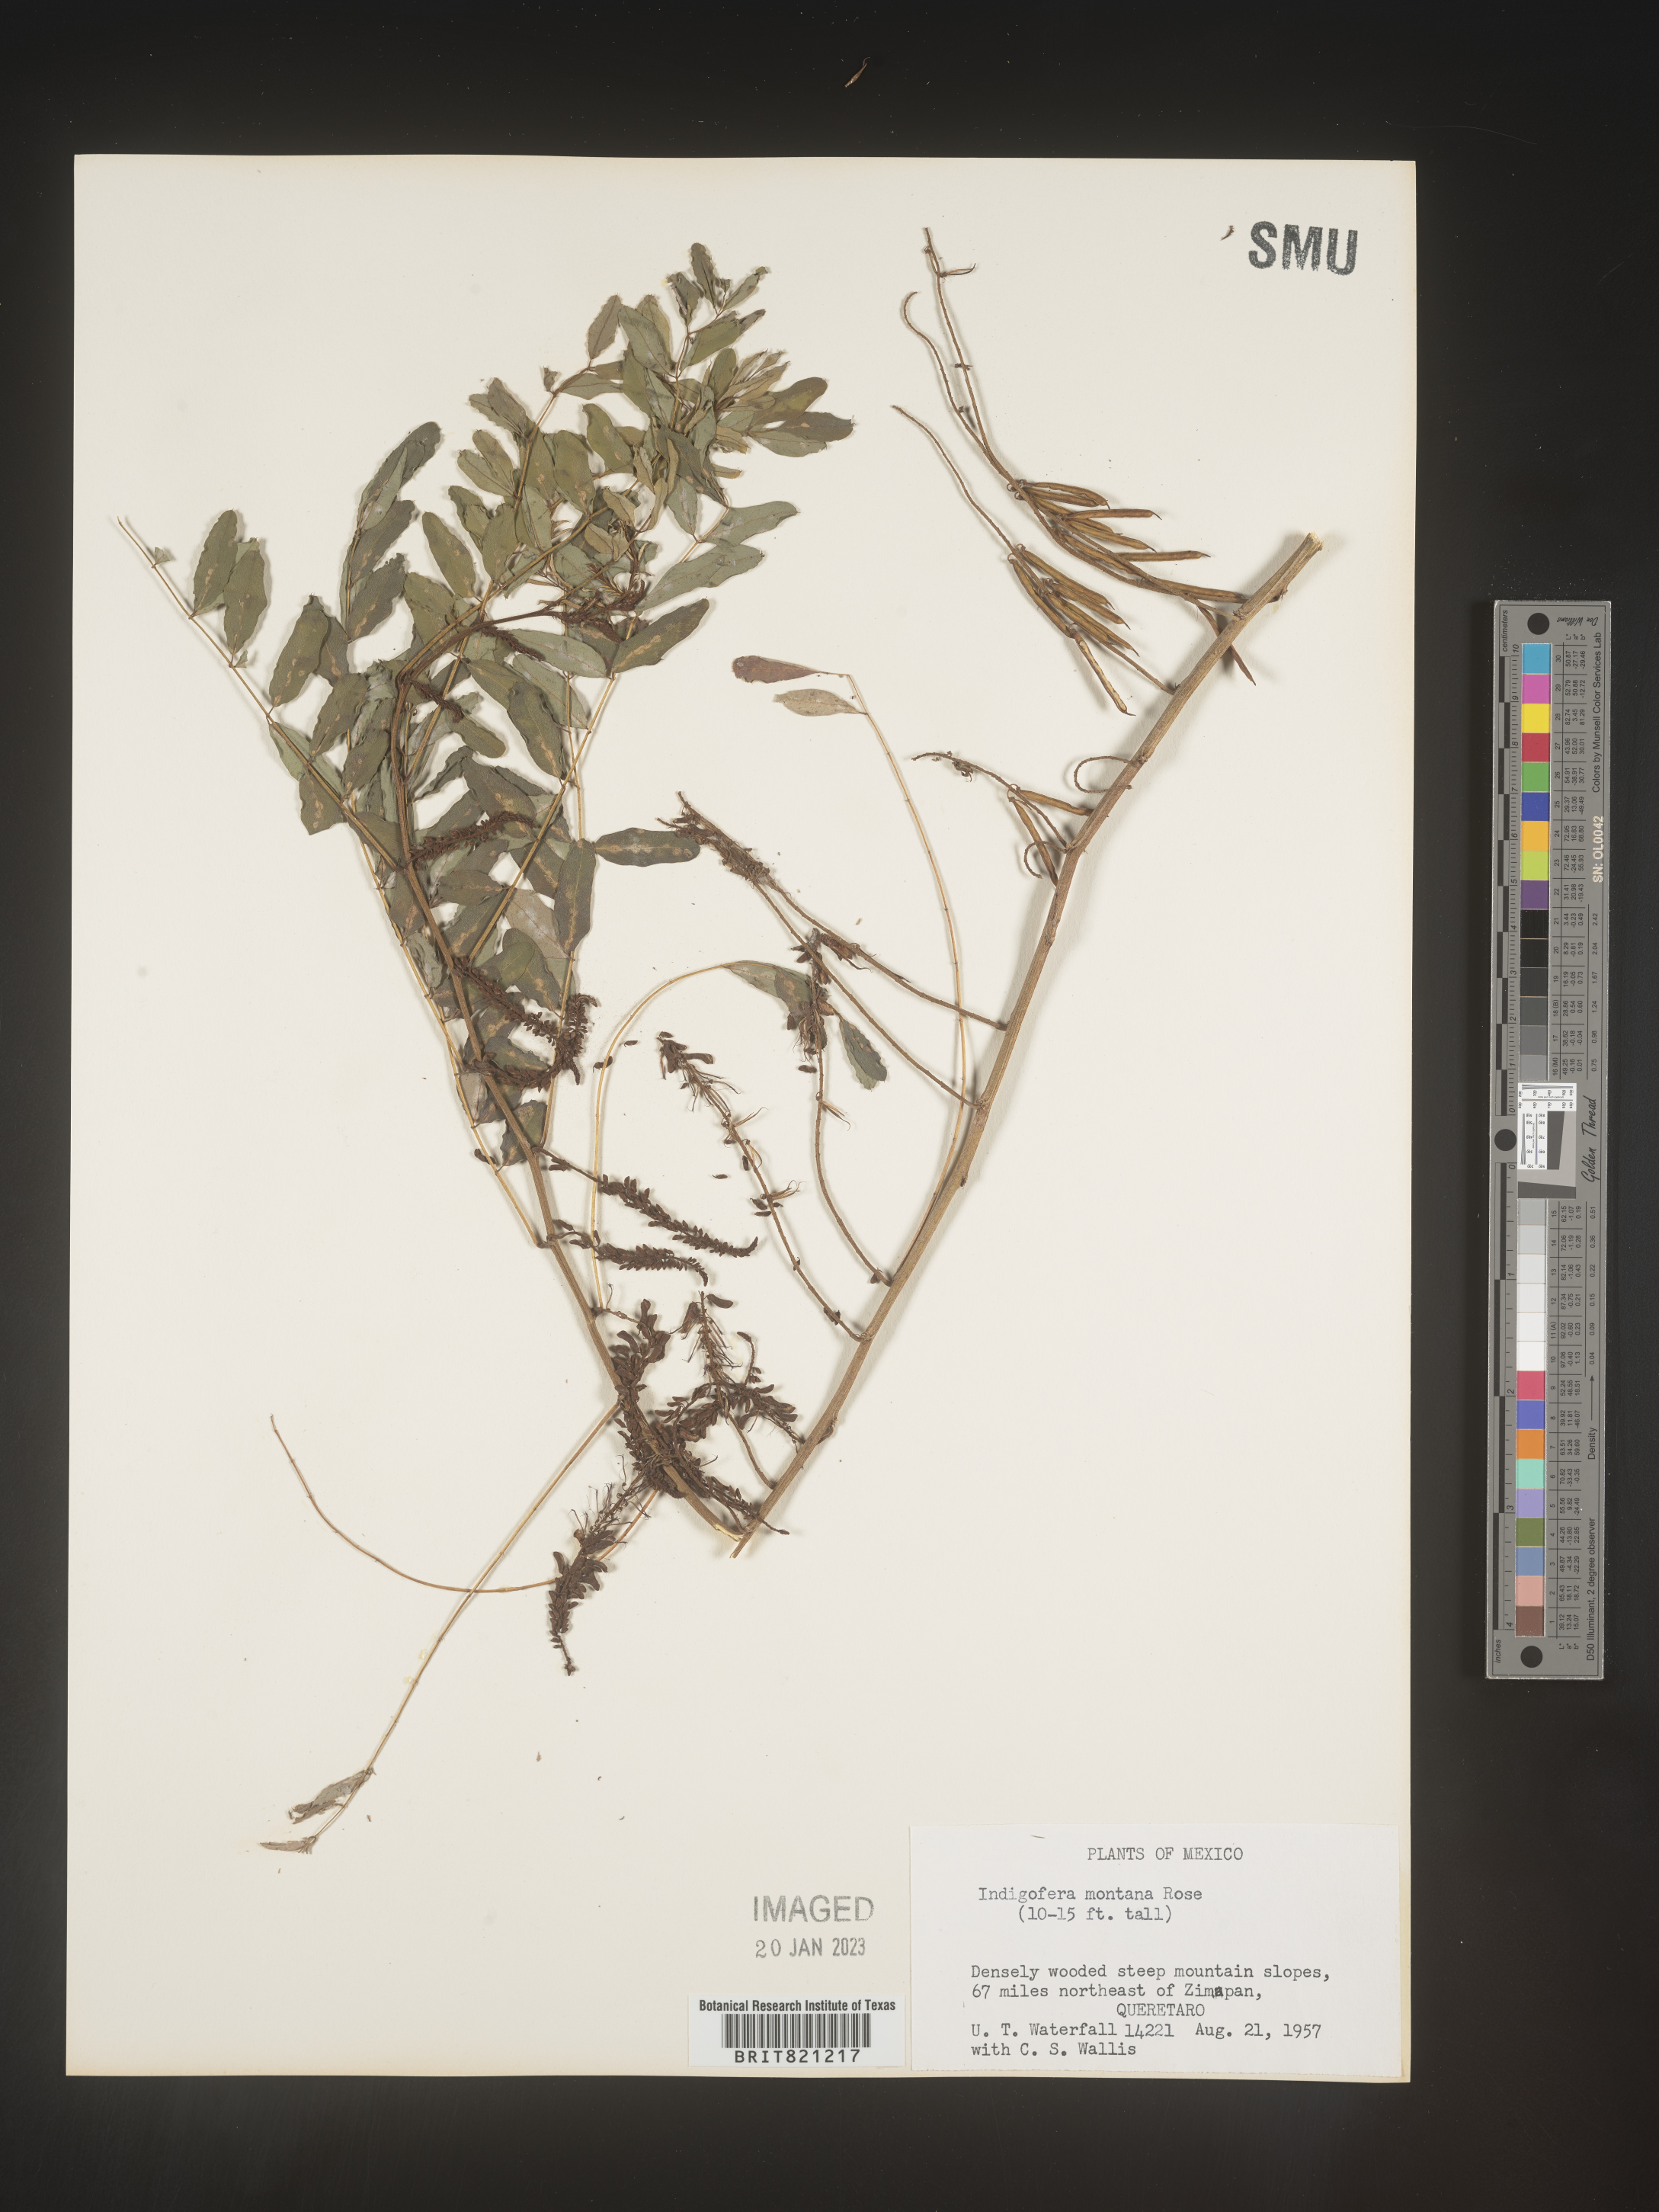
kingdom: Plantae
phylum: Tracheophyta
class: Magnoliopsida
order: Fabales
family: Fabaceae
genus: Indigofera
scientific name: Indigofera
